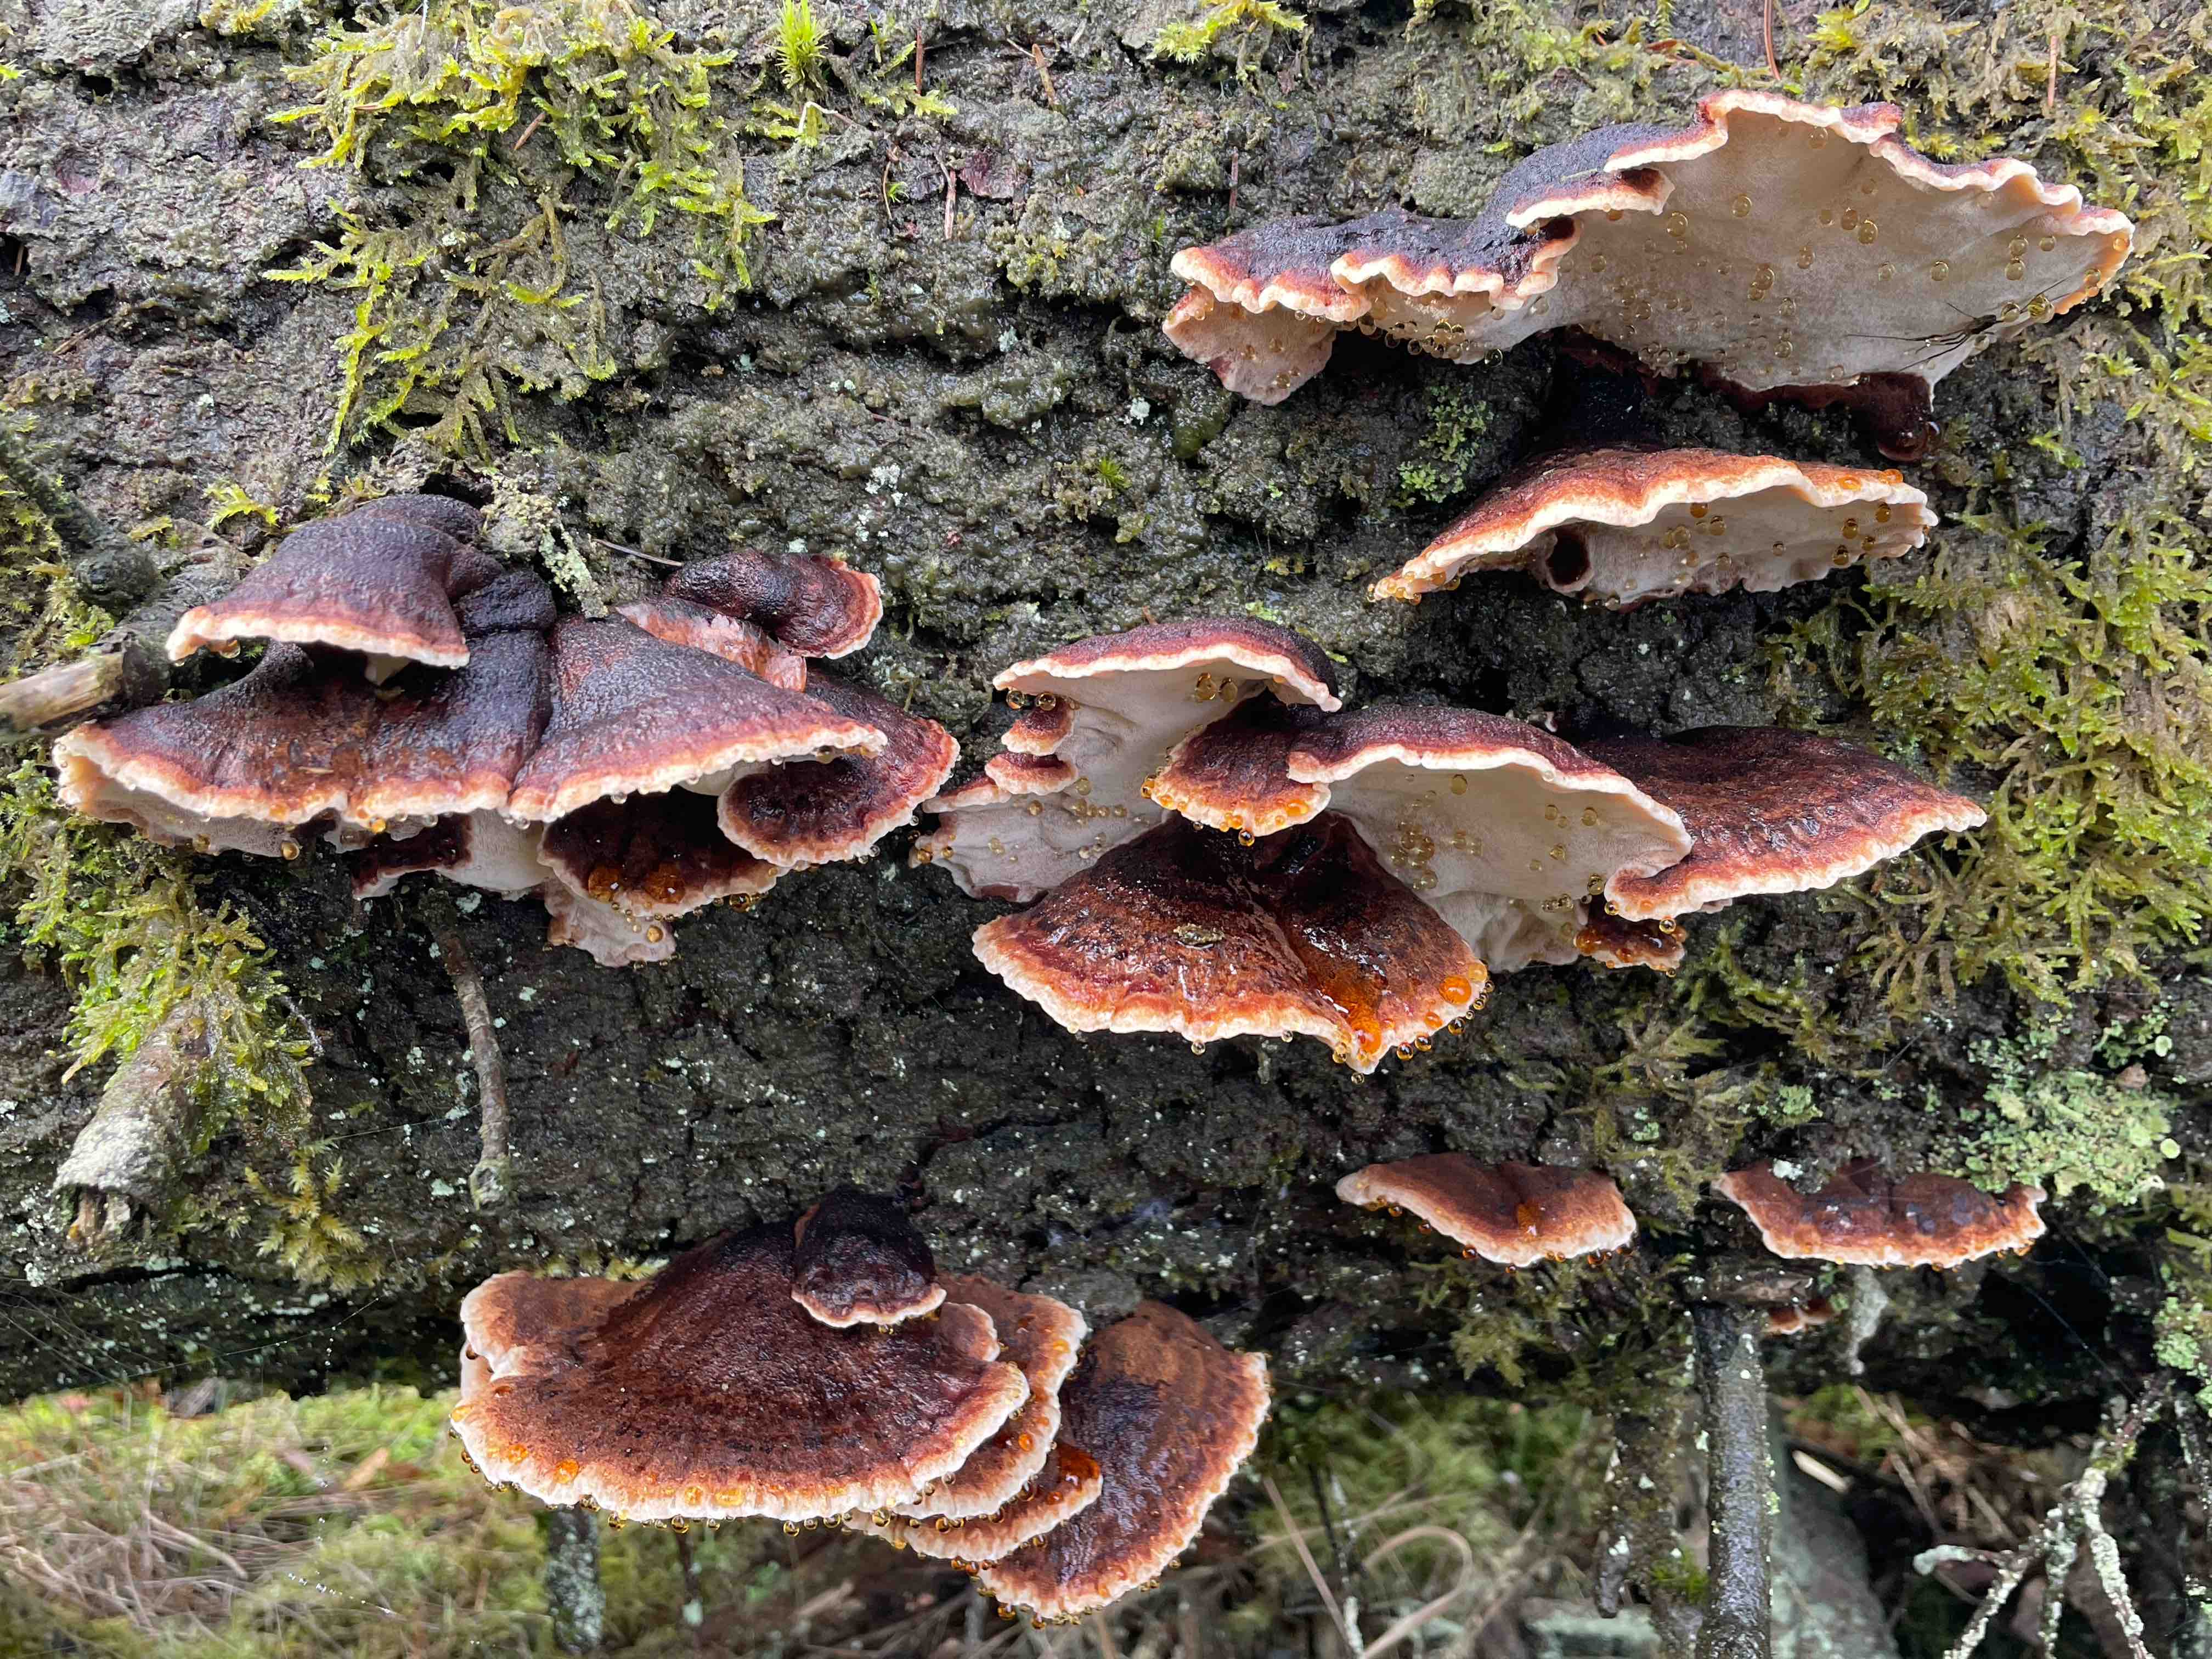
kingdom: Fungi
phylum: Basidiomycota
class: Agaricomycetes
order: Polyporales
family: Ischnodermataceae
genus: Ischnoderma
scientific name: Ischnoderma benzoinum
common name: gran-tjæreporesvamp
